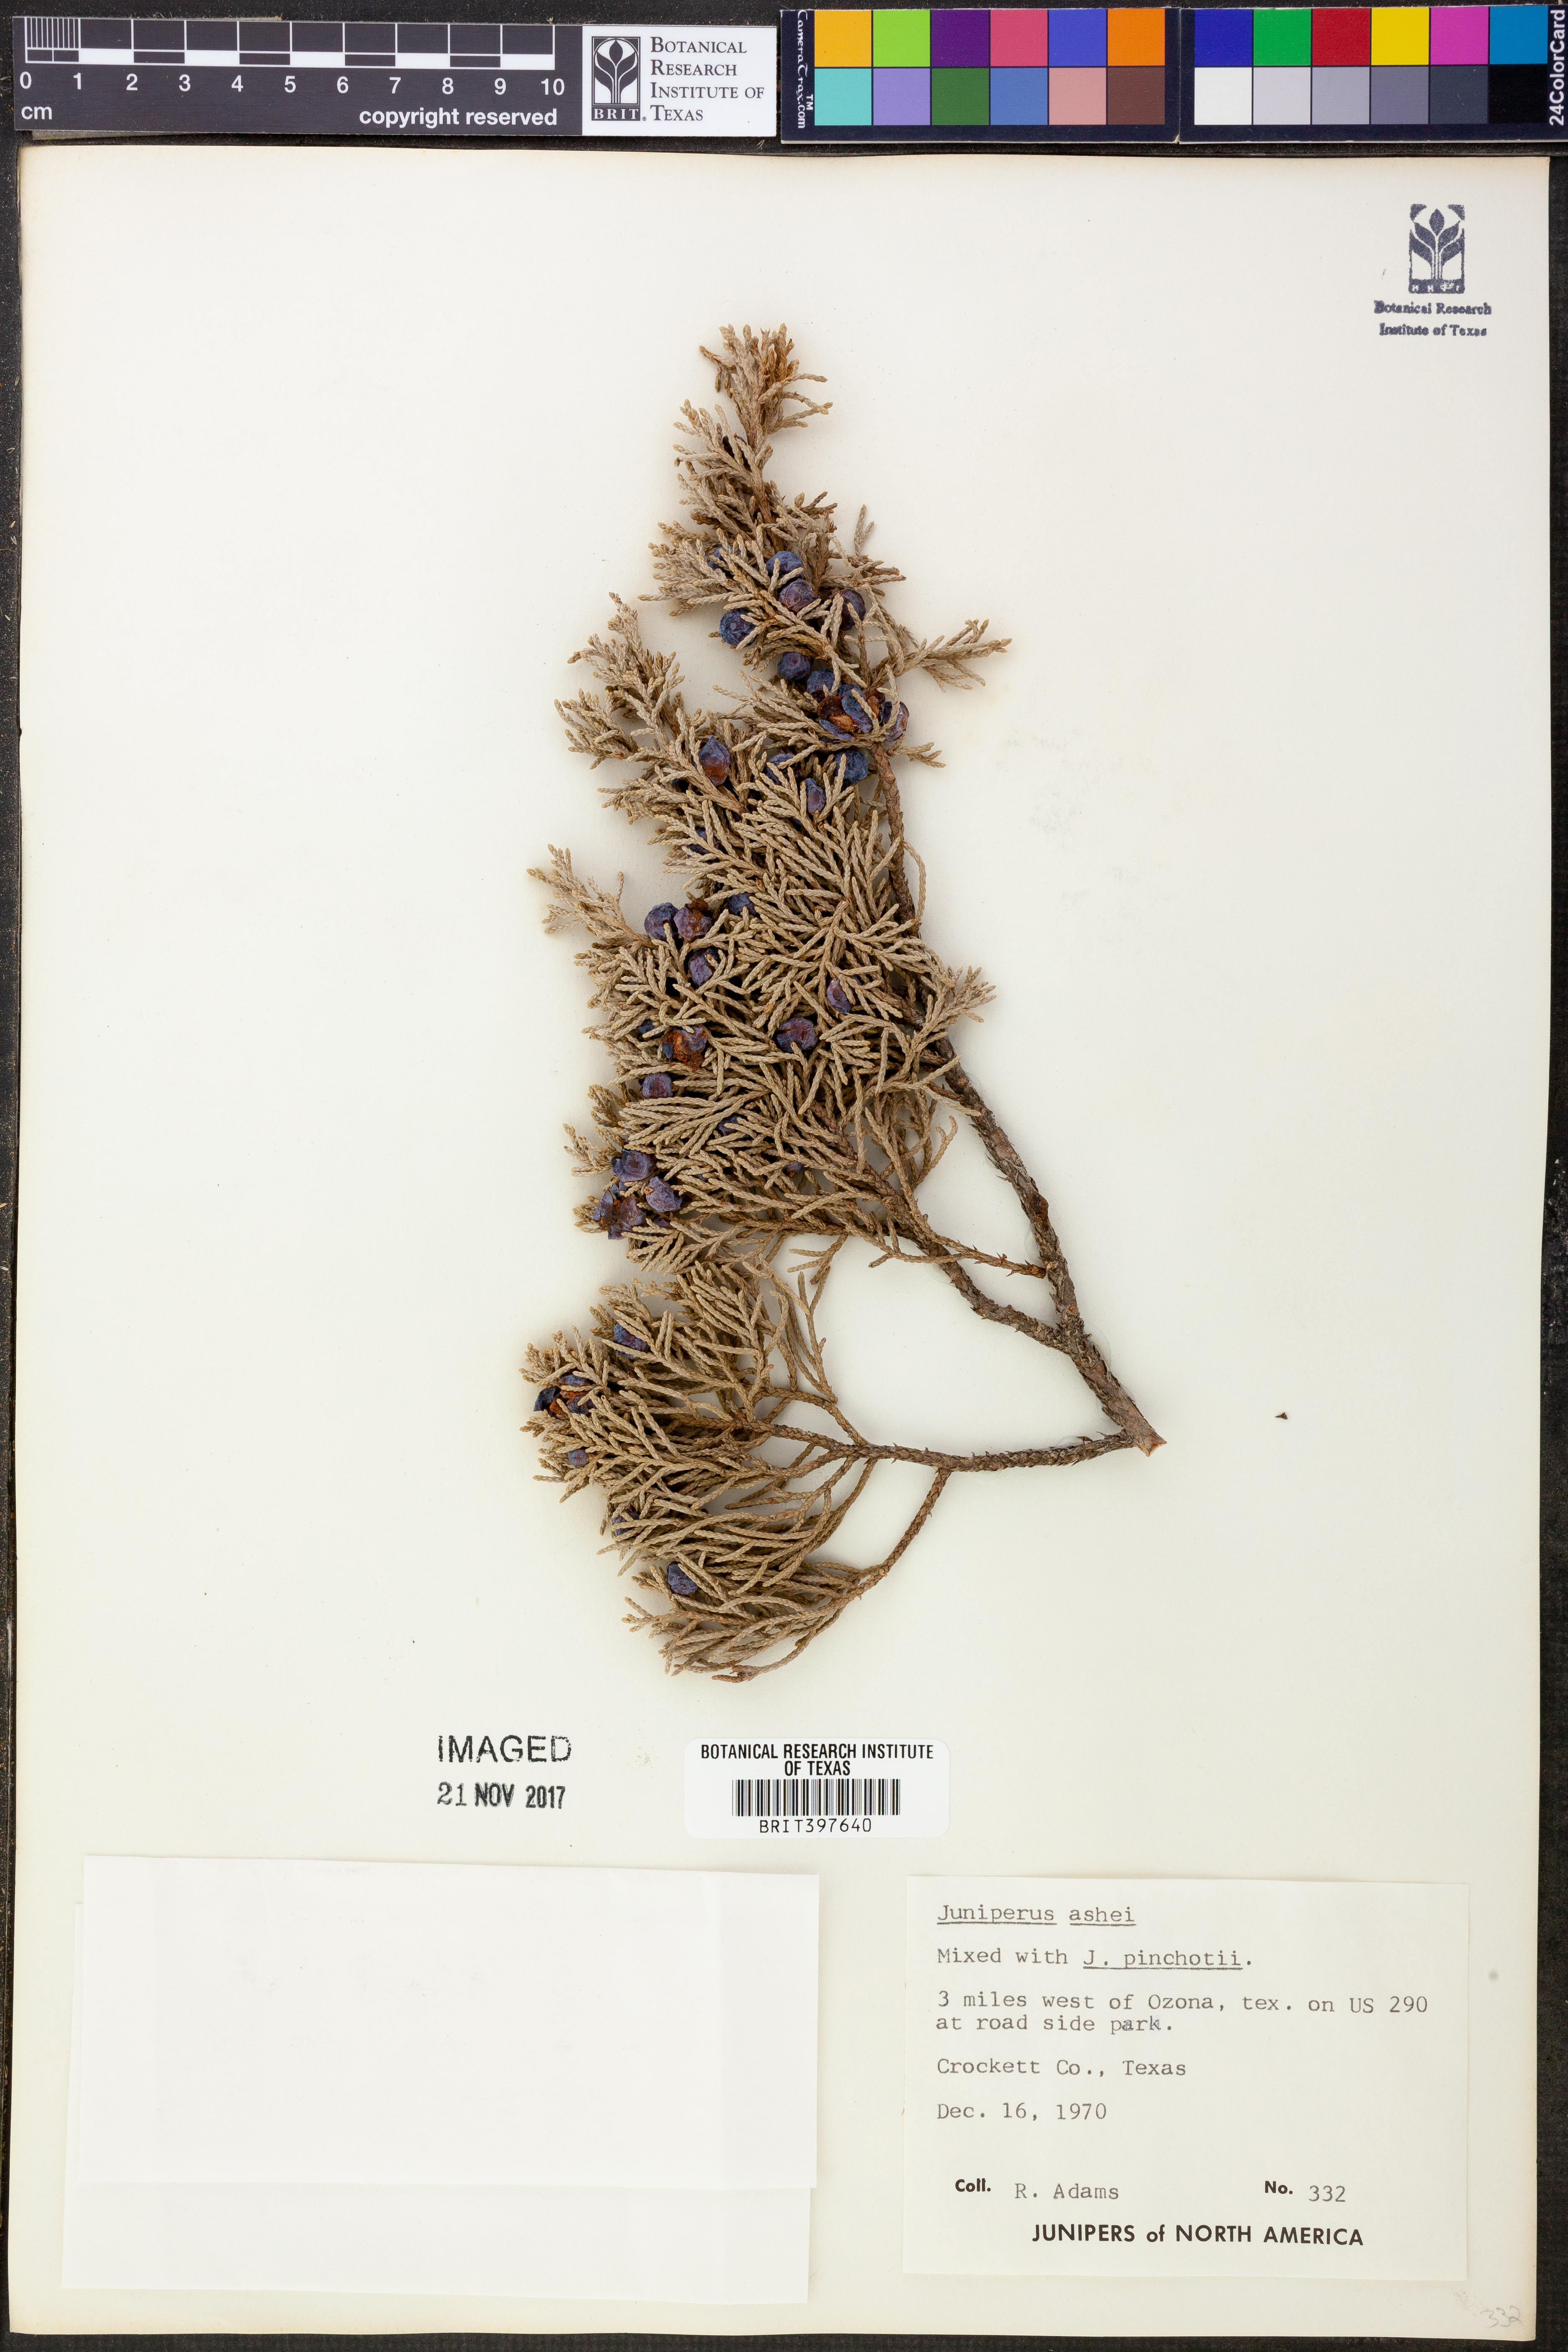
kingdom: Plantae
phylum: Tracheophyta
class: Pinopsida
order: Pinales
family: Cupressaceae
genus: Juniperus
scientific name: Juniperus ashei
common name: Mexican juniper
